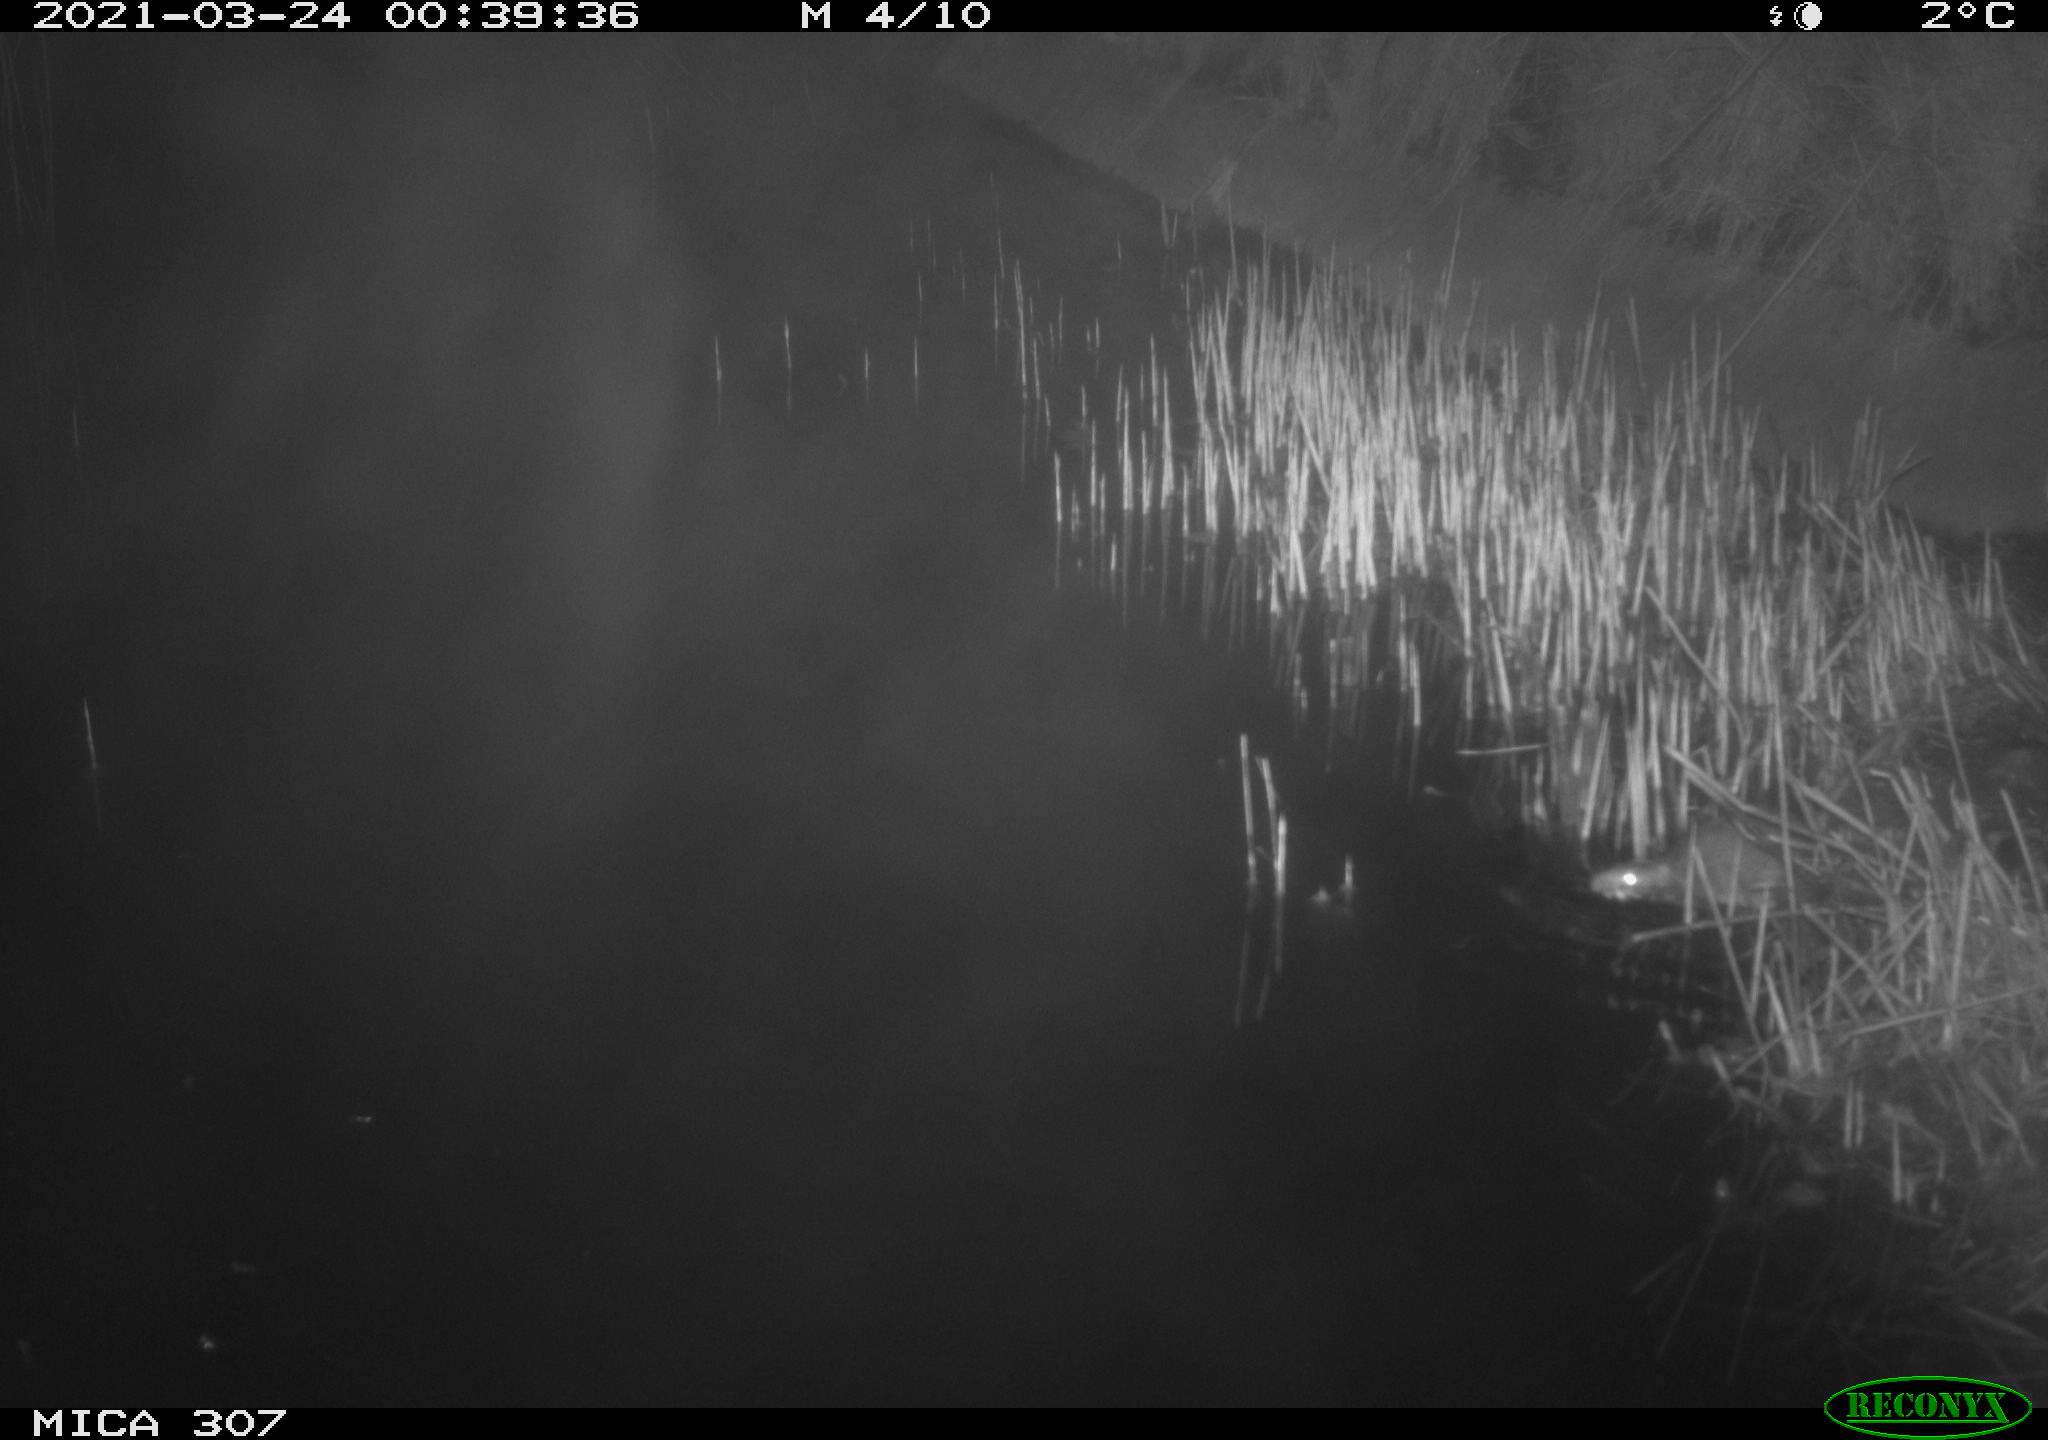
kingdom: Animalia
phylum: Chordata
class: Mammalia
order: Rodentia
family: Muridae
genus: Rattus
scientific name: Rattus norvegicus
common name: Brown rat
